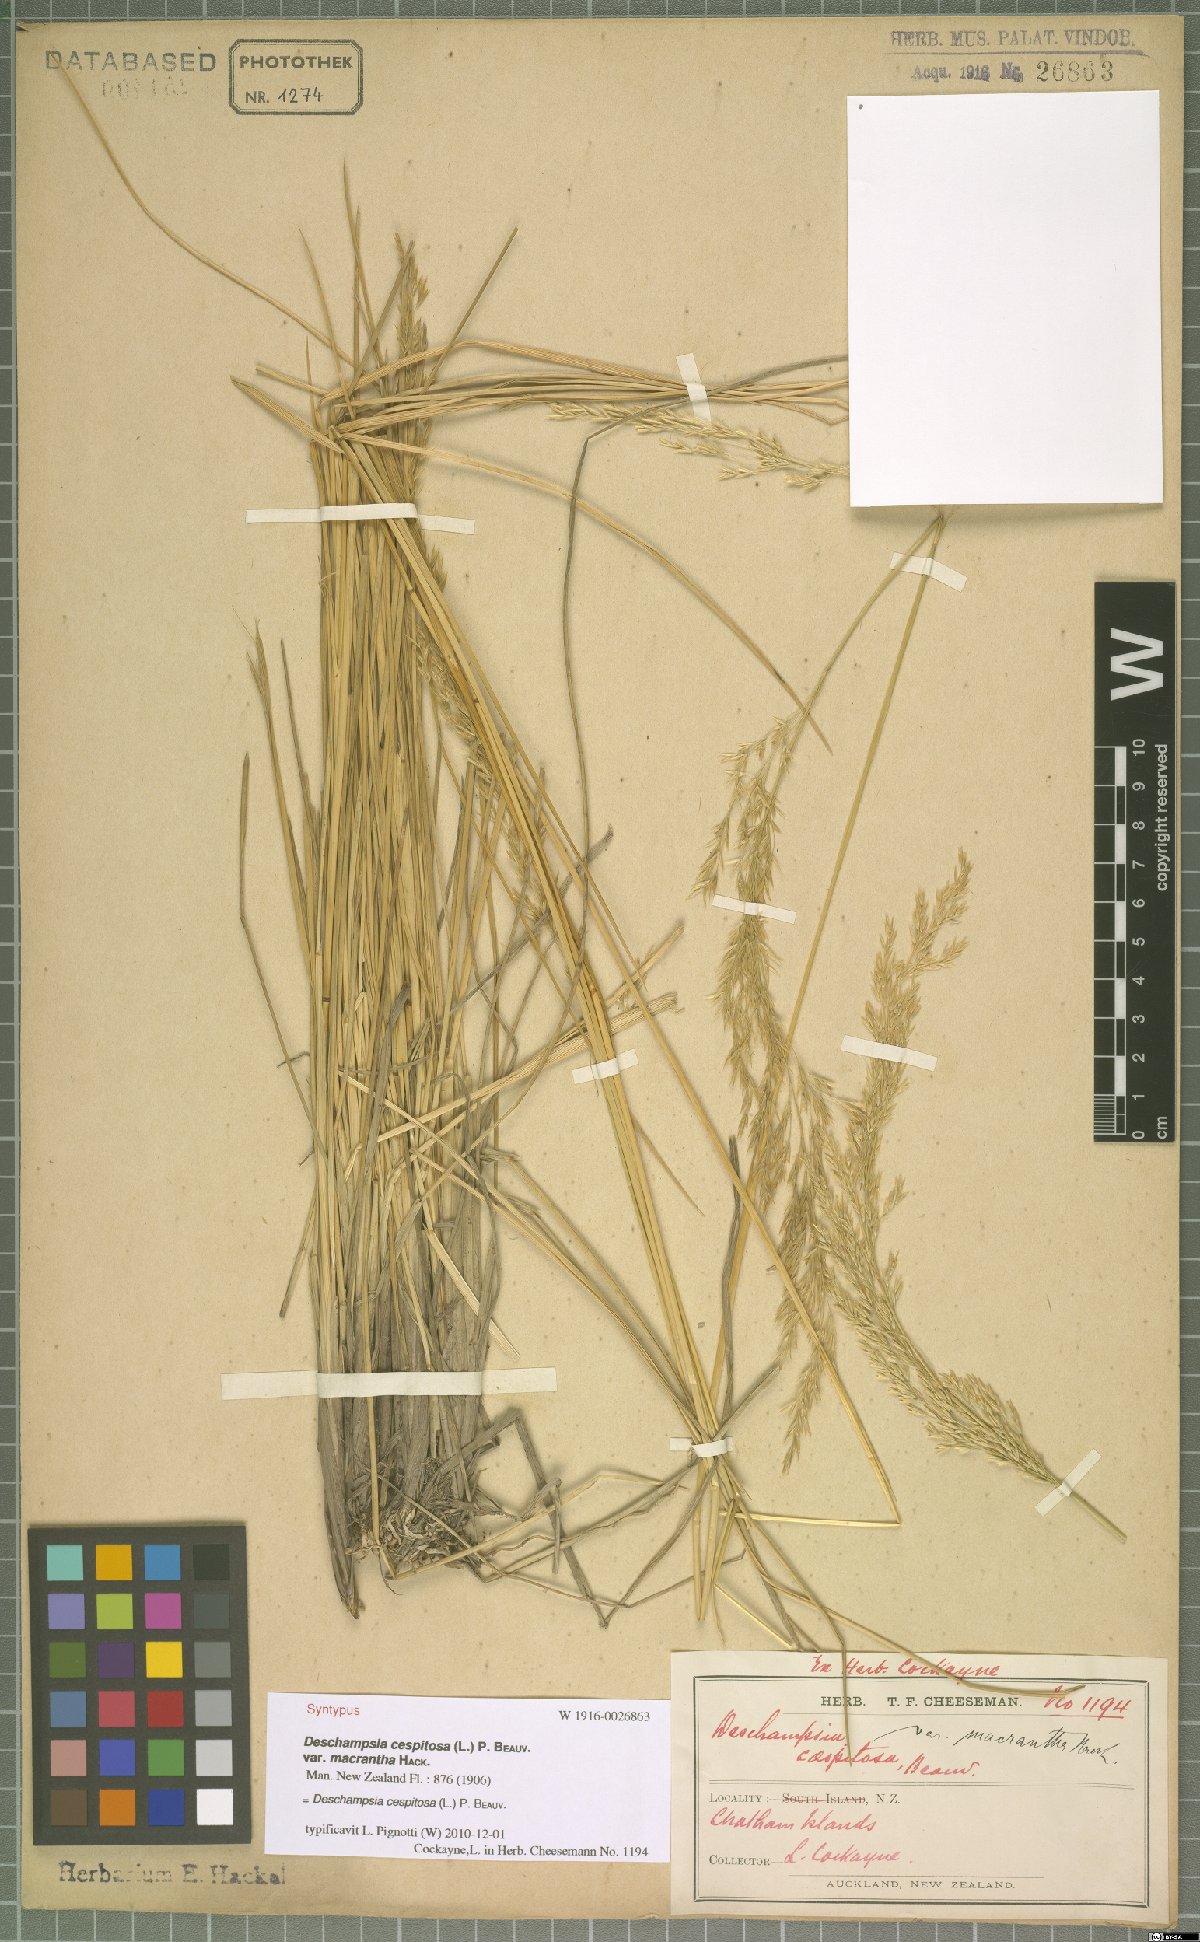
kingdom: Plantae
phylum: Tracheophyta
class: Liliopsida
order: Poales
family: Poaceae
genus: Deschampsia
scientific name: Deschampsia cespitosa
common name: Tufted hair-grass
